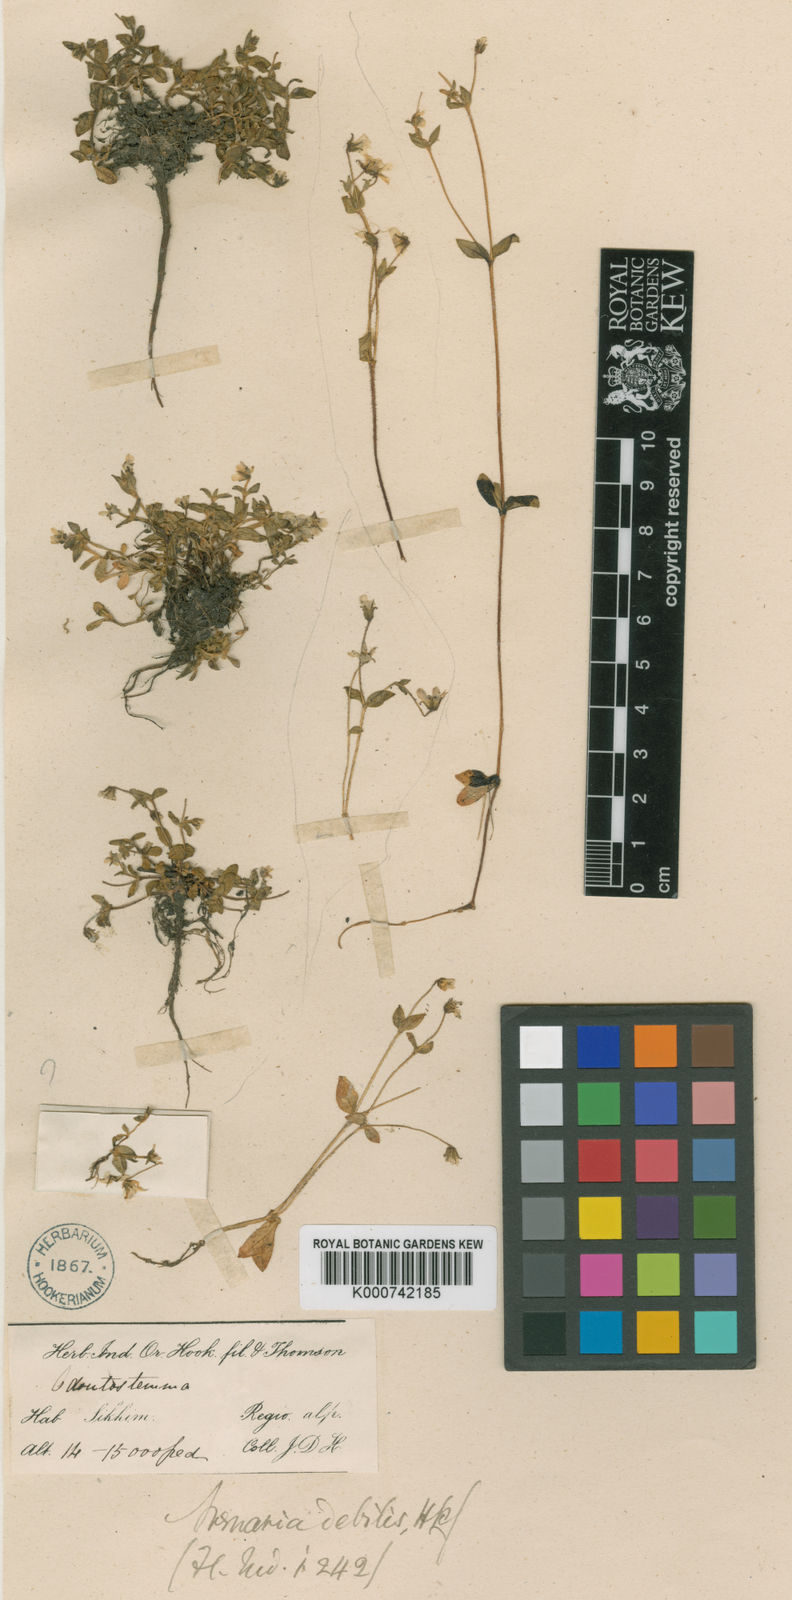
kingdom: Plantae
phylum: Tracheophyta
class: Magnoliopsida
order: Caryophyllales
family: Caryophyllaceae
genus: Odontostemma
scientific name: Odontostemma glandulosum
